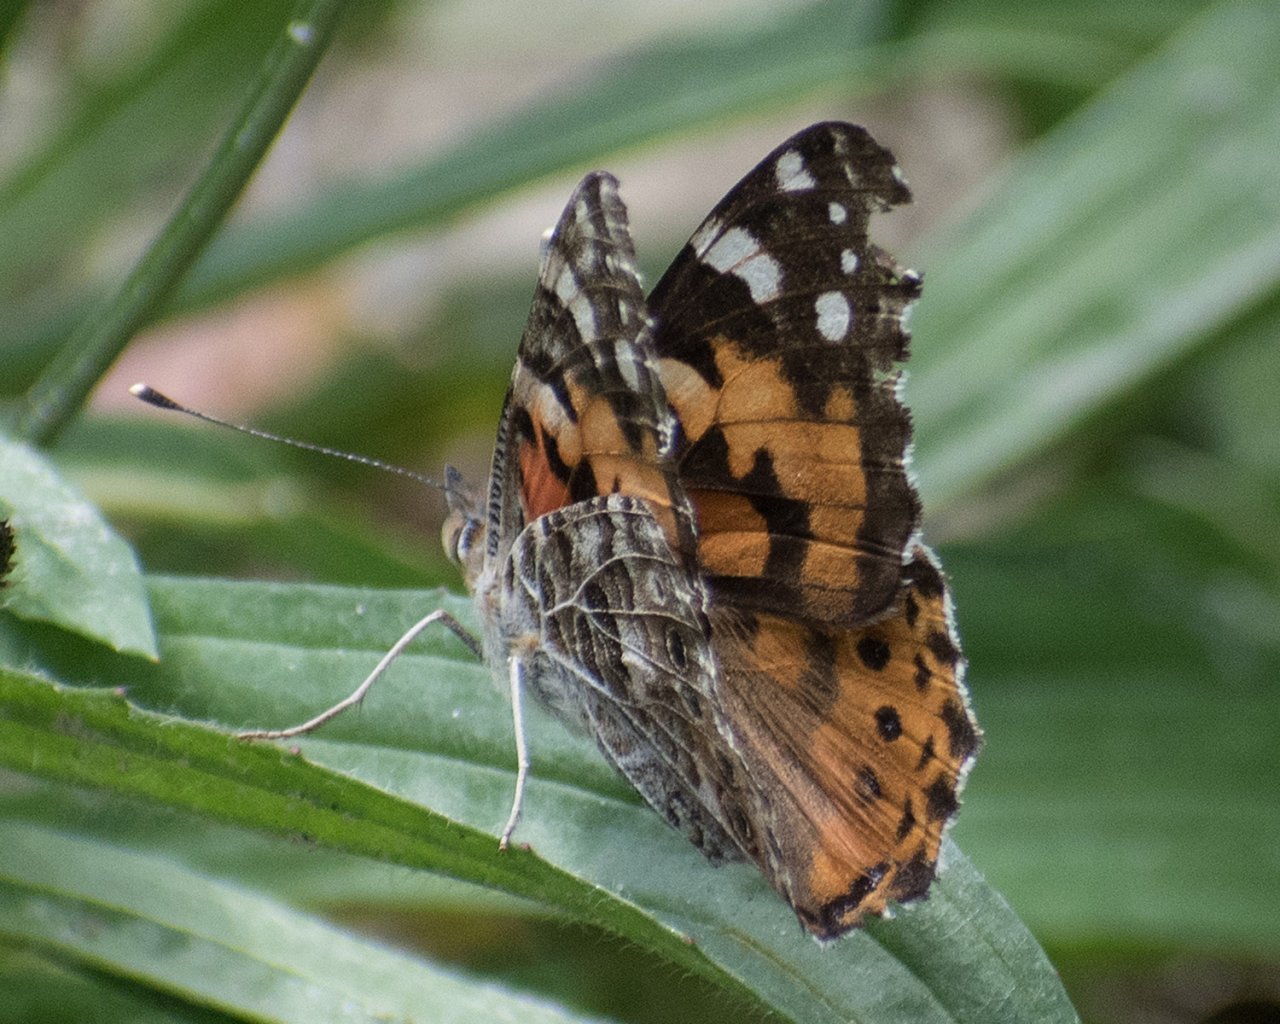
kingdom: Animalia
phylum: Arthropoda
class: Insecta
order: Lepidoptera
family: Nymphalidae
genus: Vanessa
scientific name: Vanessa cardui
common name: Painted Lady
